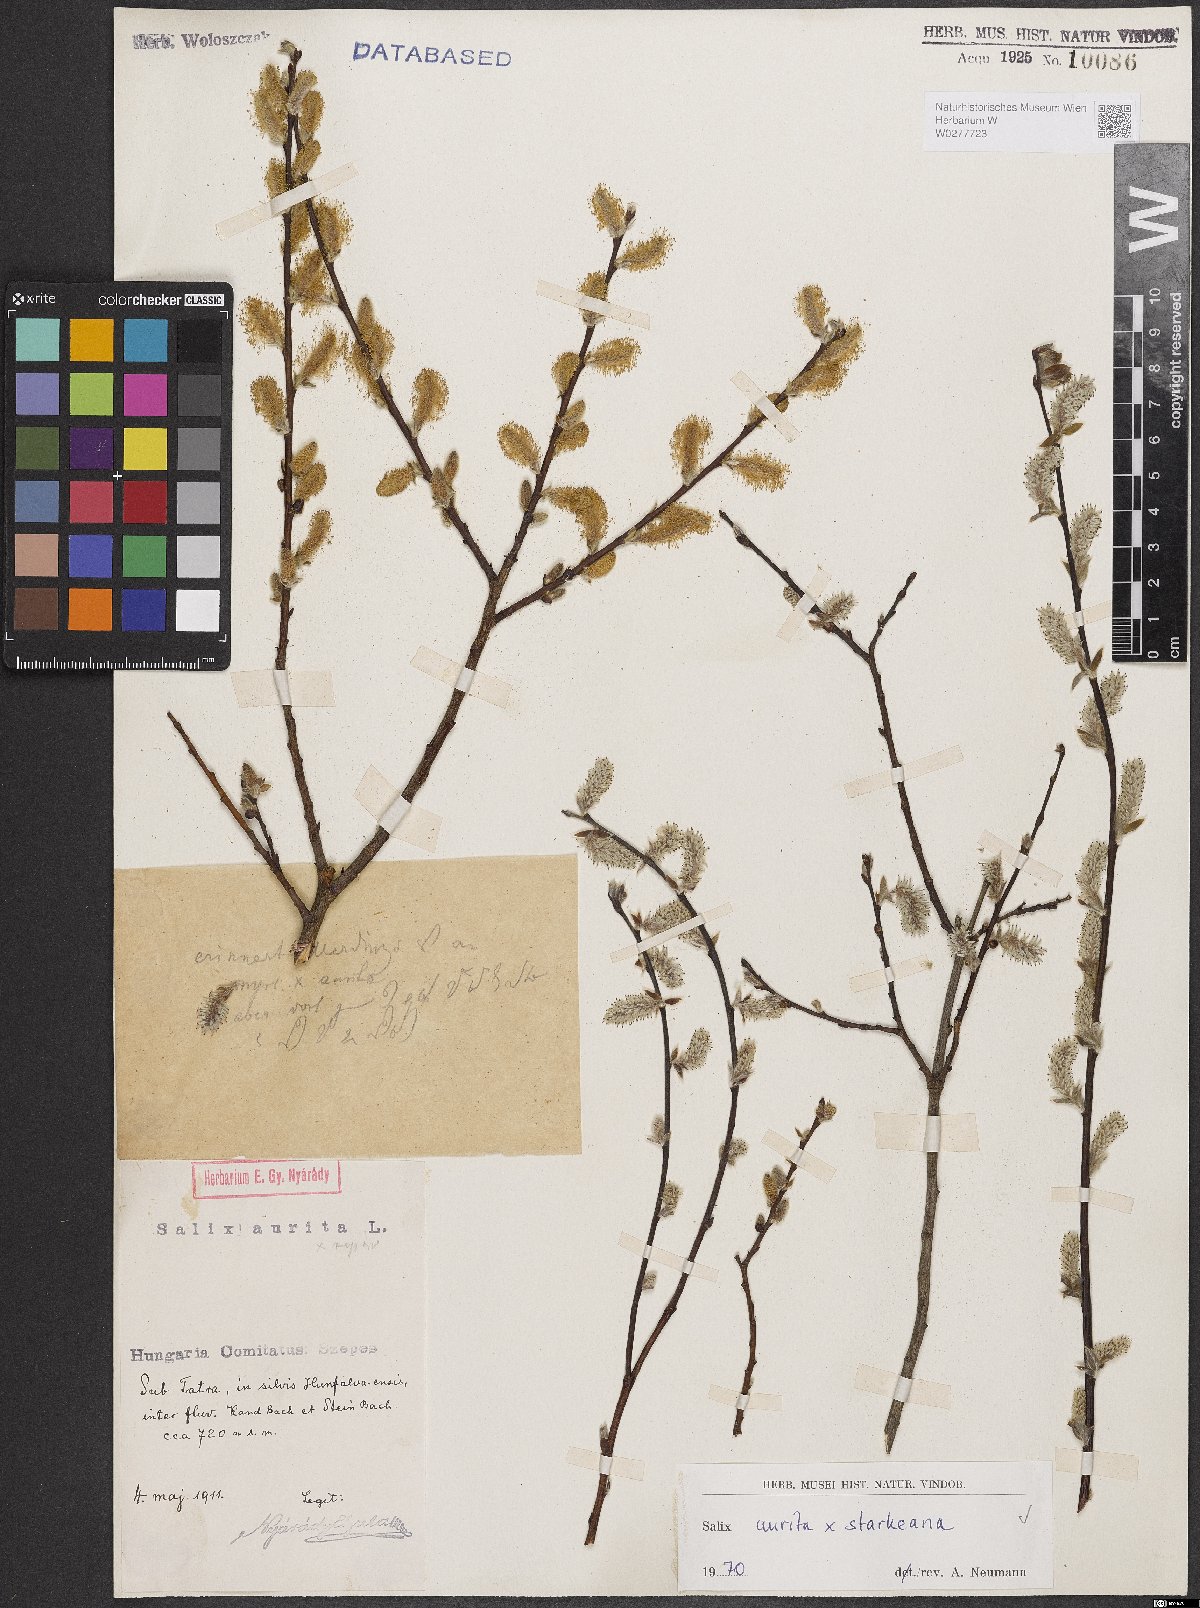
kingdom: Plantae
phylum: Tracheophyta
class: Magnoliopsida
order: Malpighiales
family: Salicaceae
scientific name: Salicaceae
